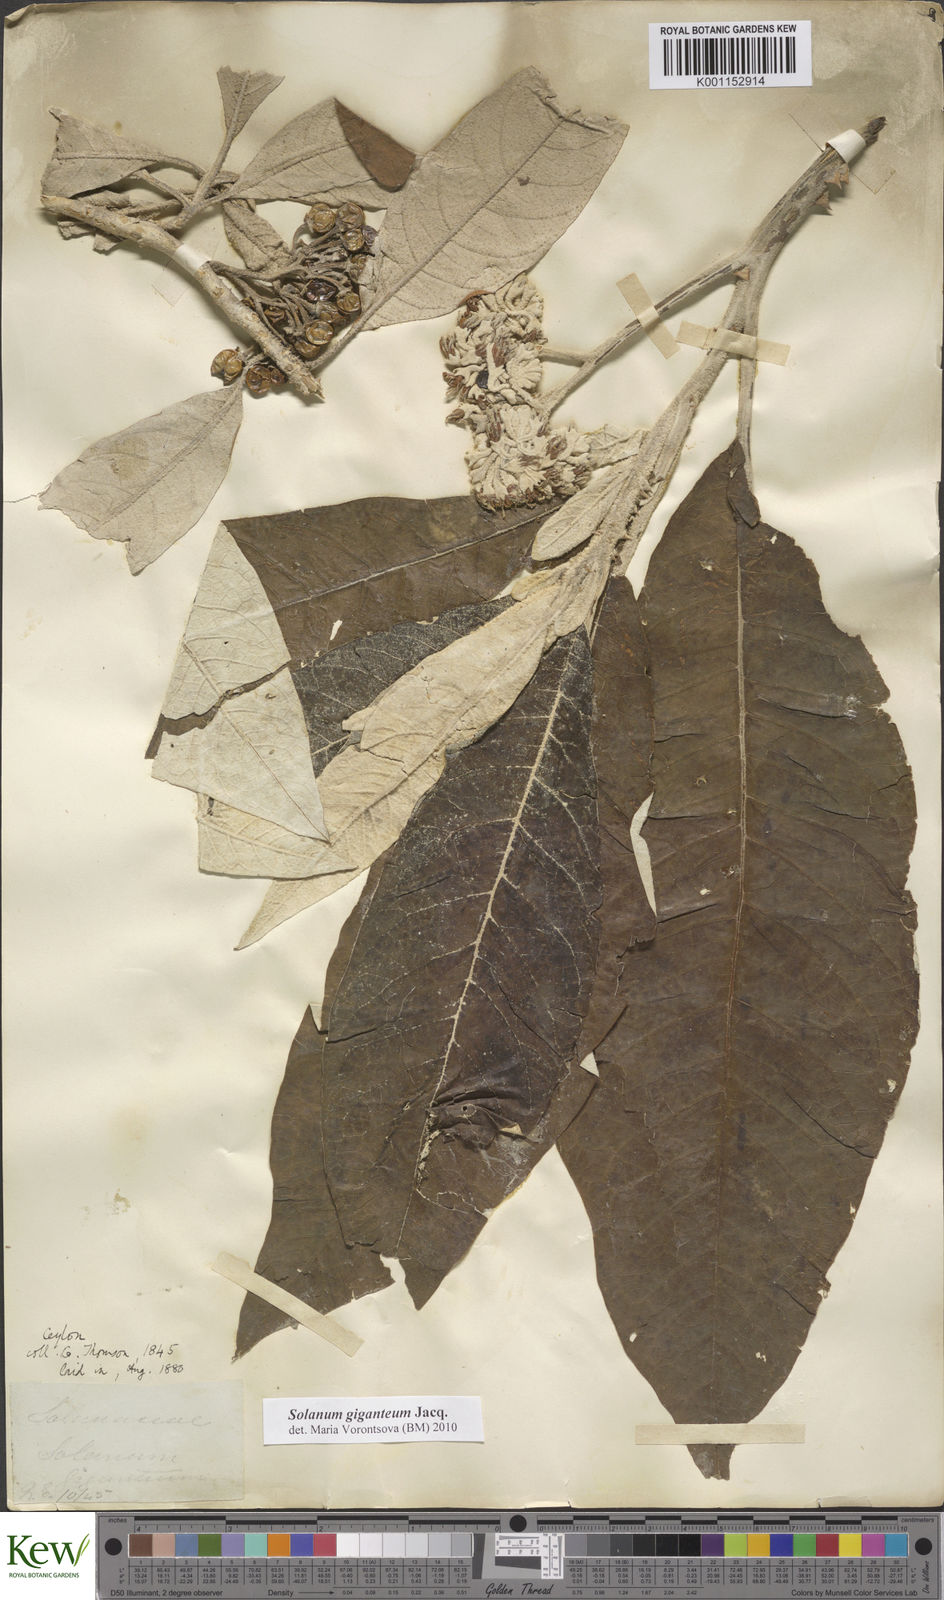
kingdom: Plantae
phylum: Tracheophyta
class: Magnoliopsida
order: Solanales
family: Solanaceae
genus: Solanum
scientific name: Solanum giganteum
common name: Healing-leaf-tree
